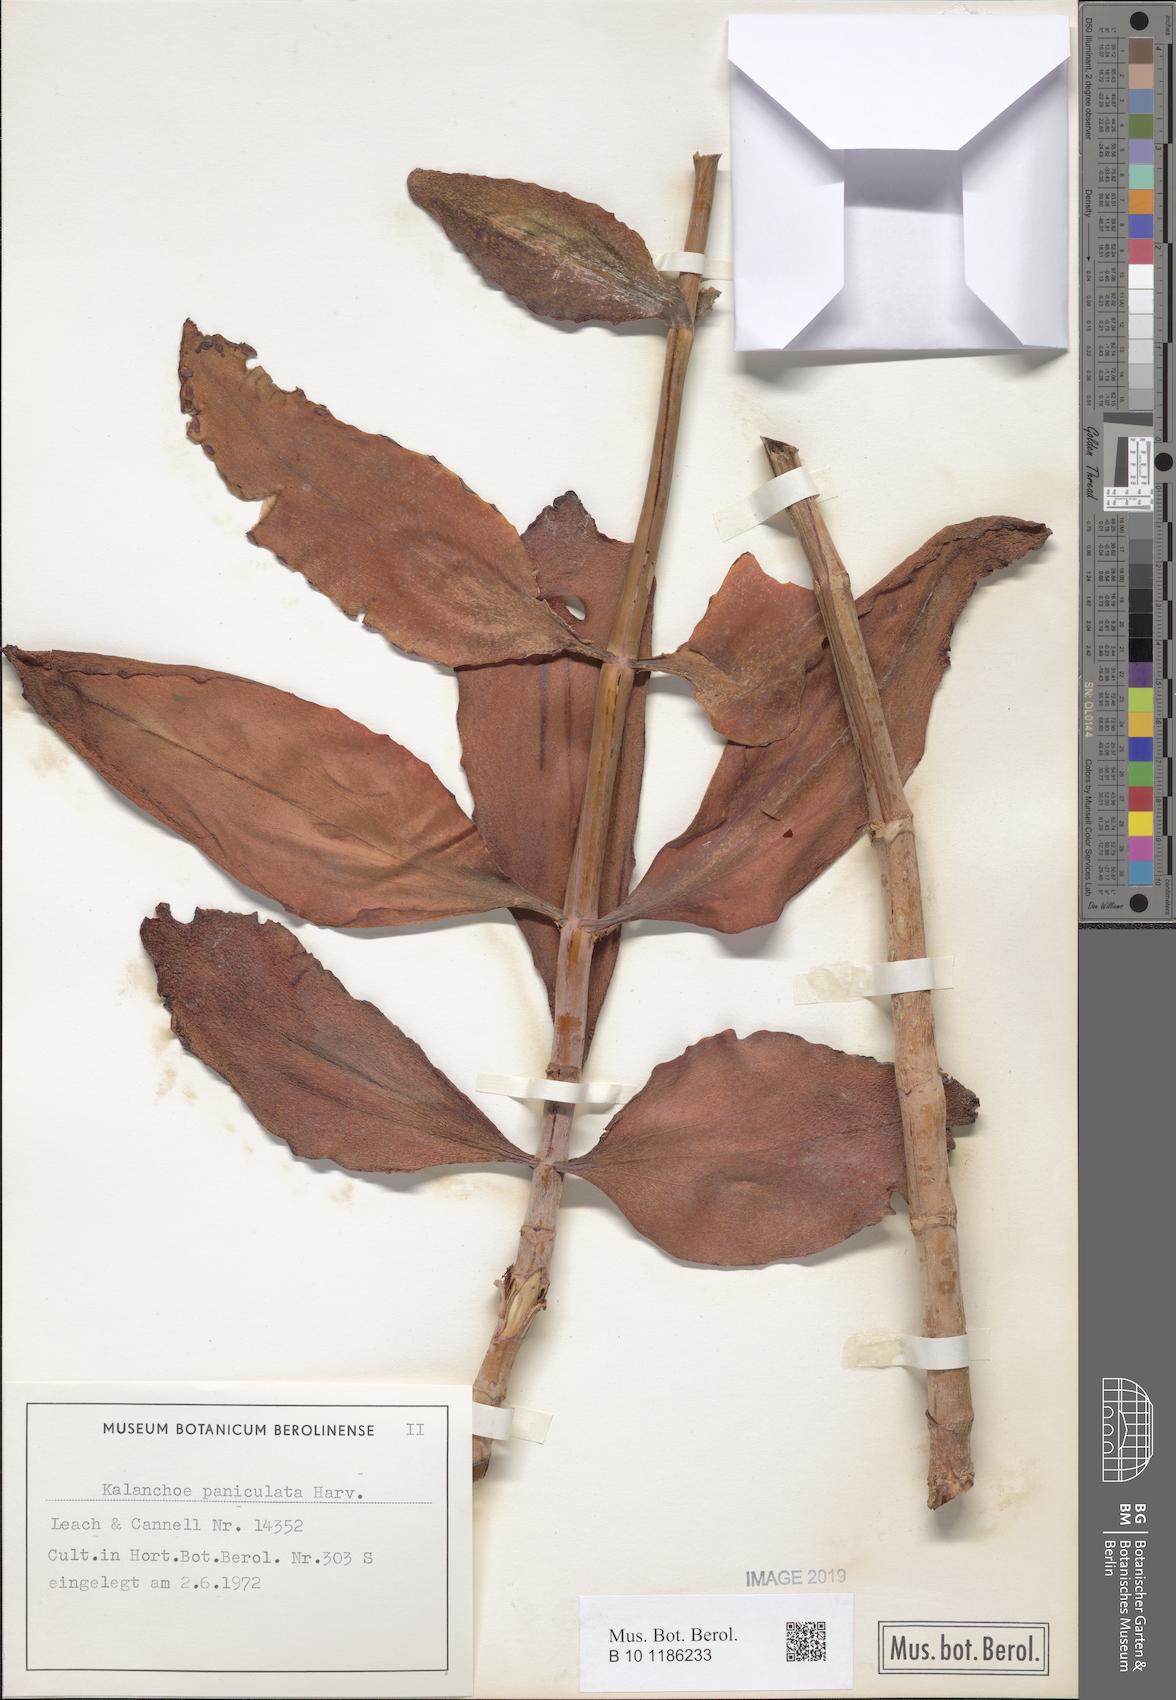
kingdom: Plantae
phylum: Tracheophyta
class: Magnoliopsida
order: Saxifragales
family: Crassulaceae
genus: Kalanchoe
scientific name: Kalanchoe paniculata
